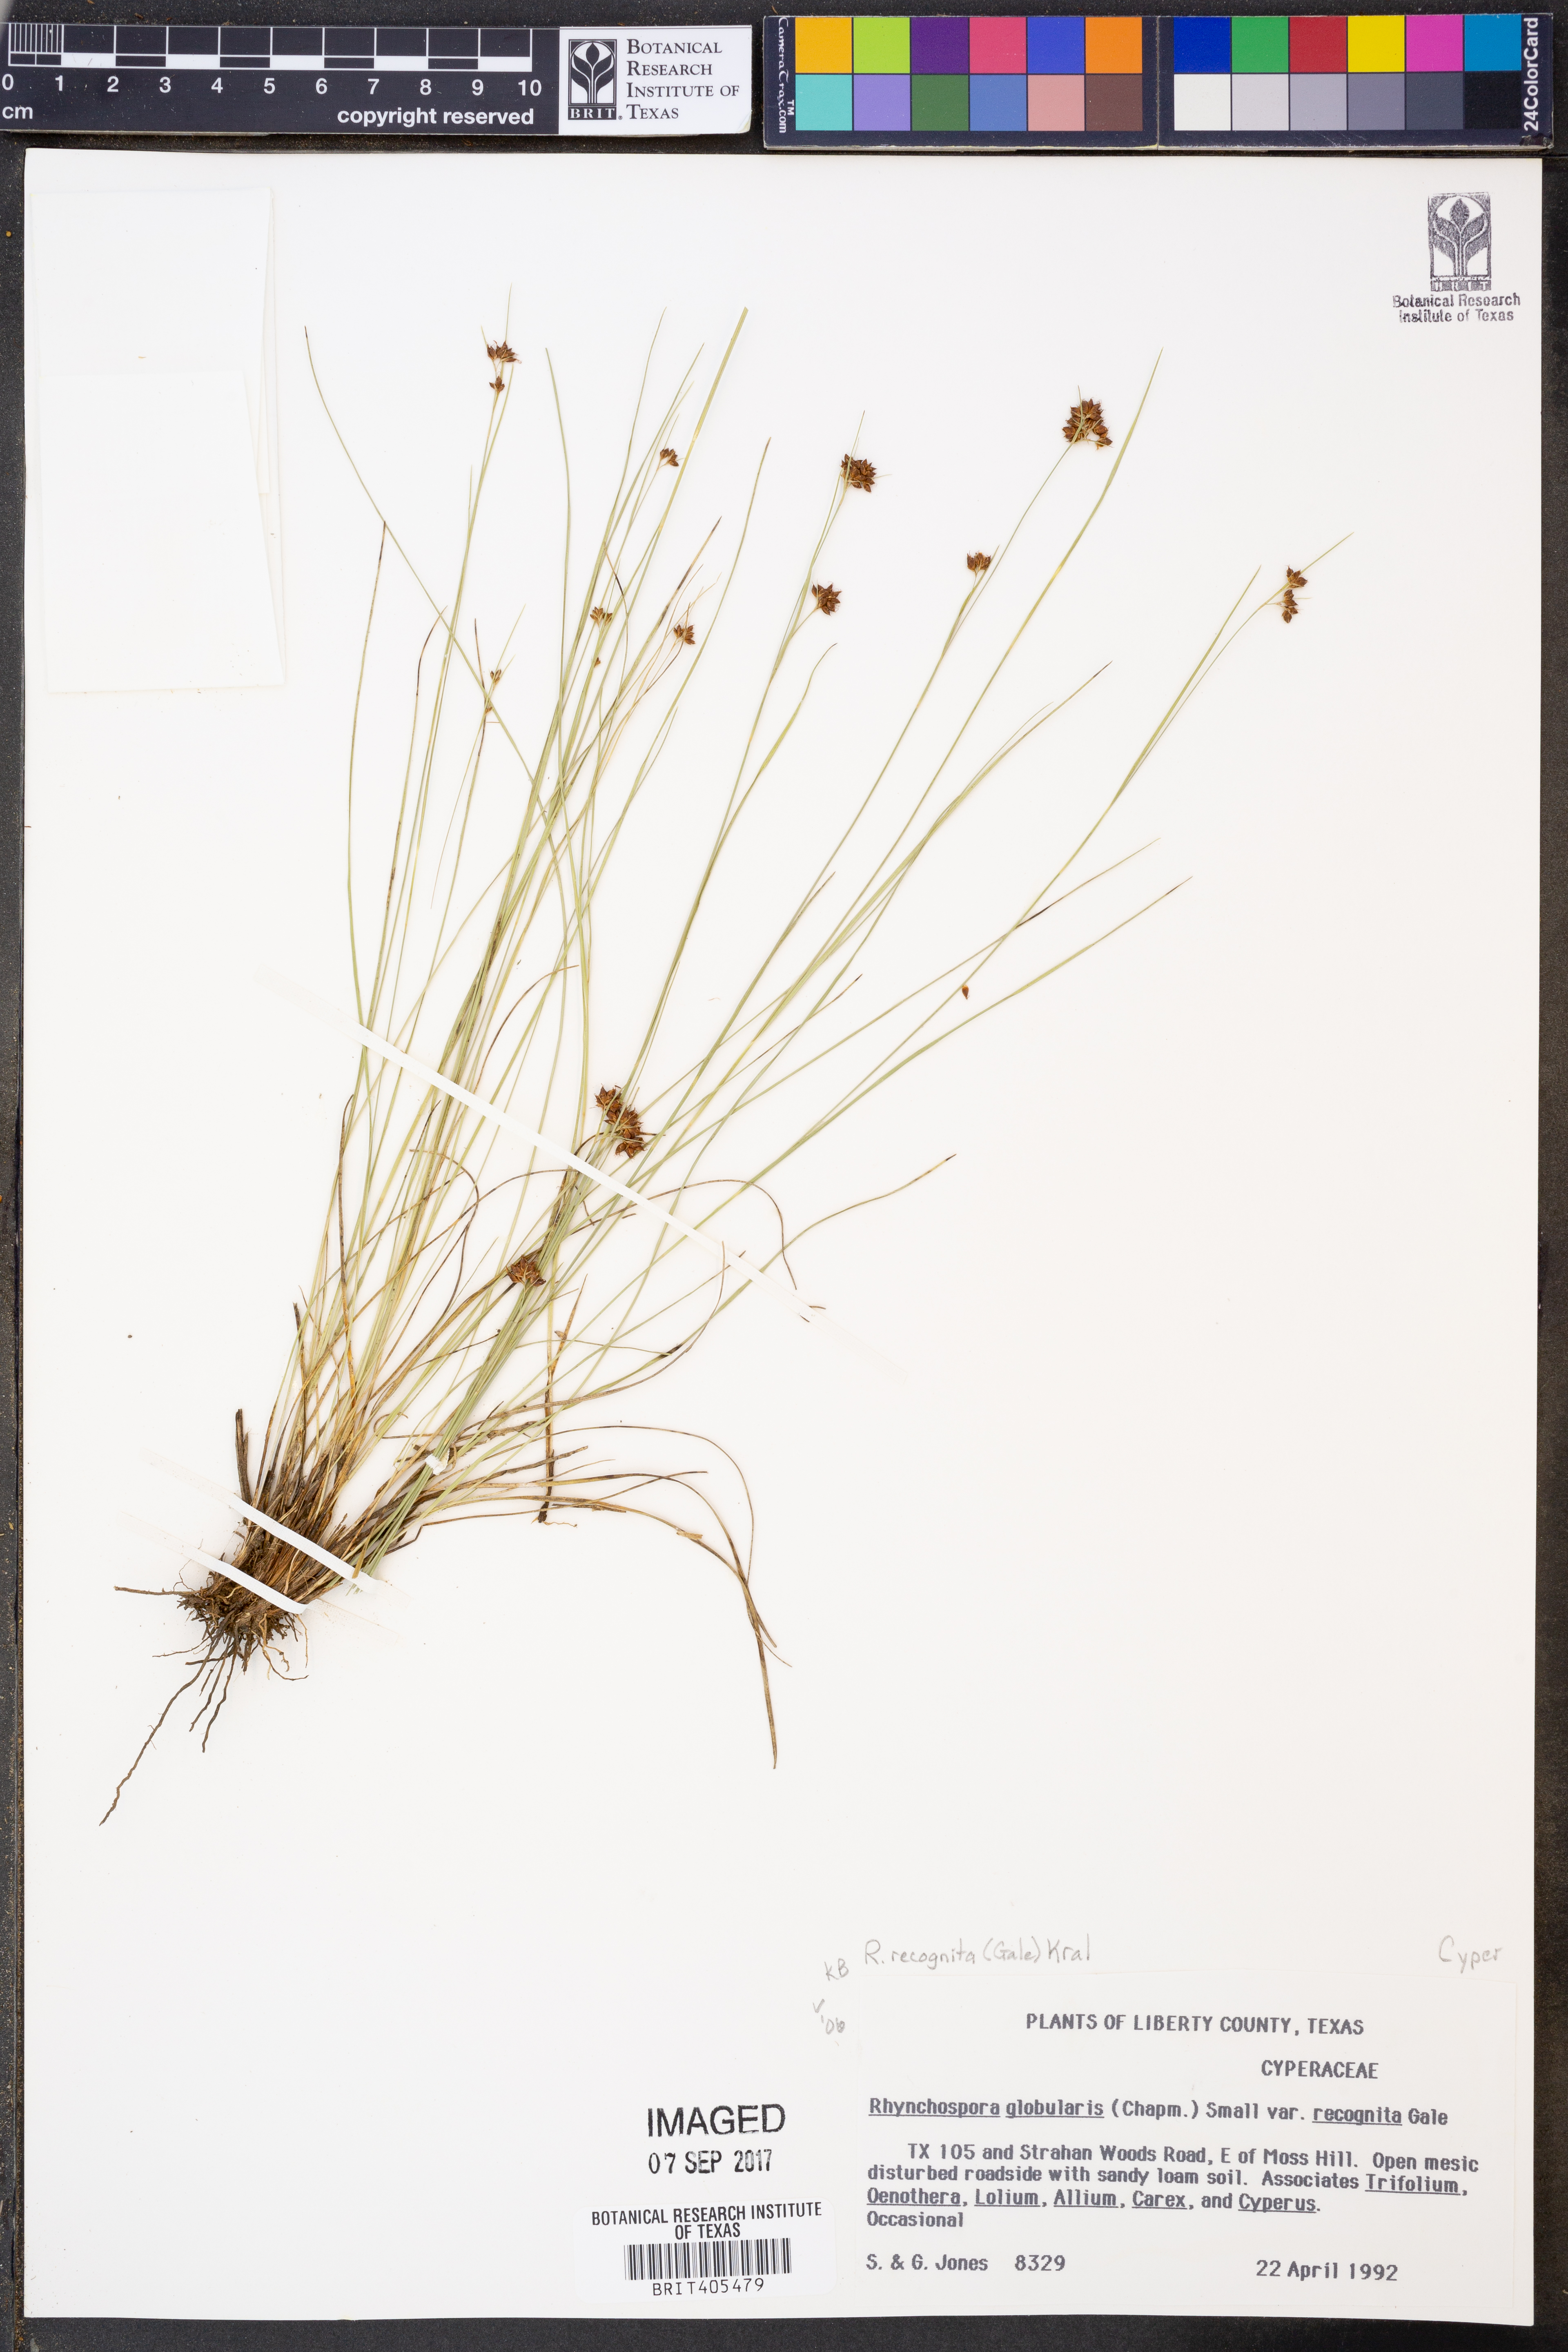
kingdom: Plantae
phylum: Tracheophyta
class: Liliopsida
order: Poales
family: Cyperaceae
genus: Rhynchospora
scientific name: Rhynchospora recognita
